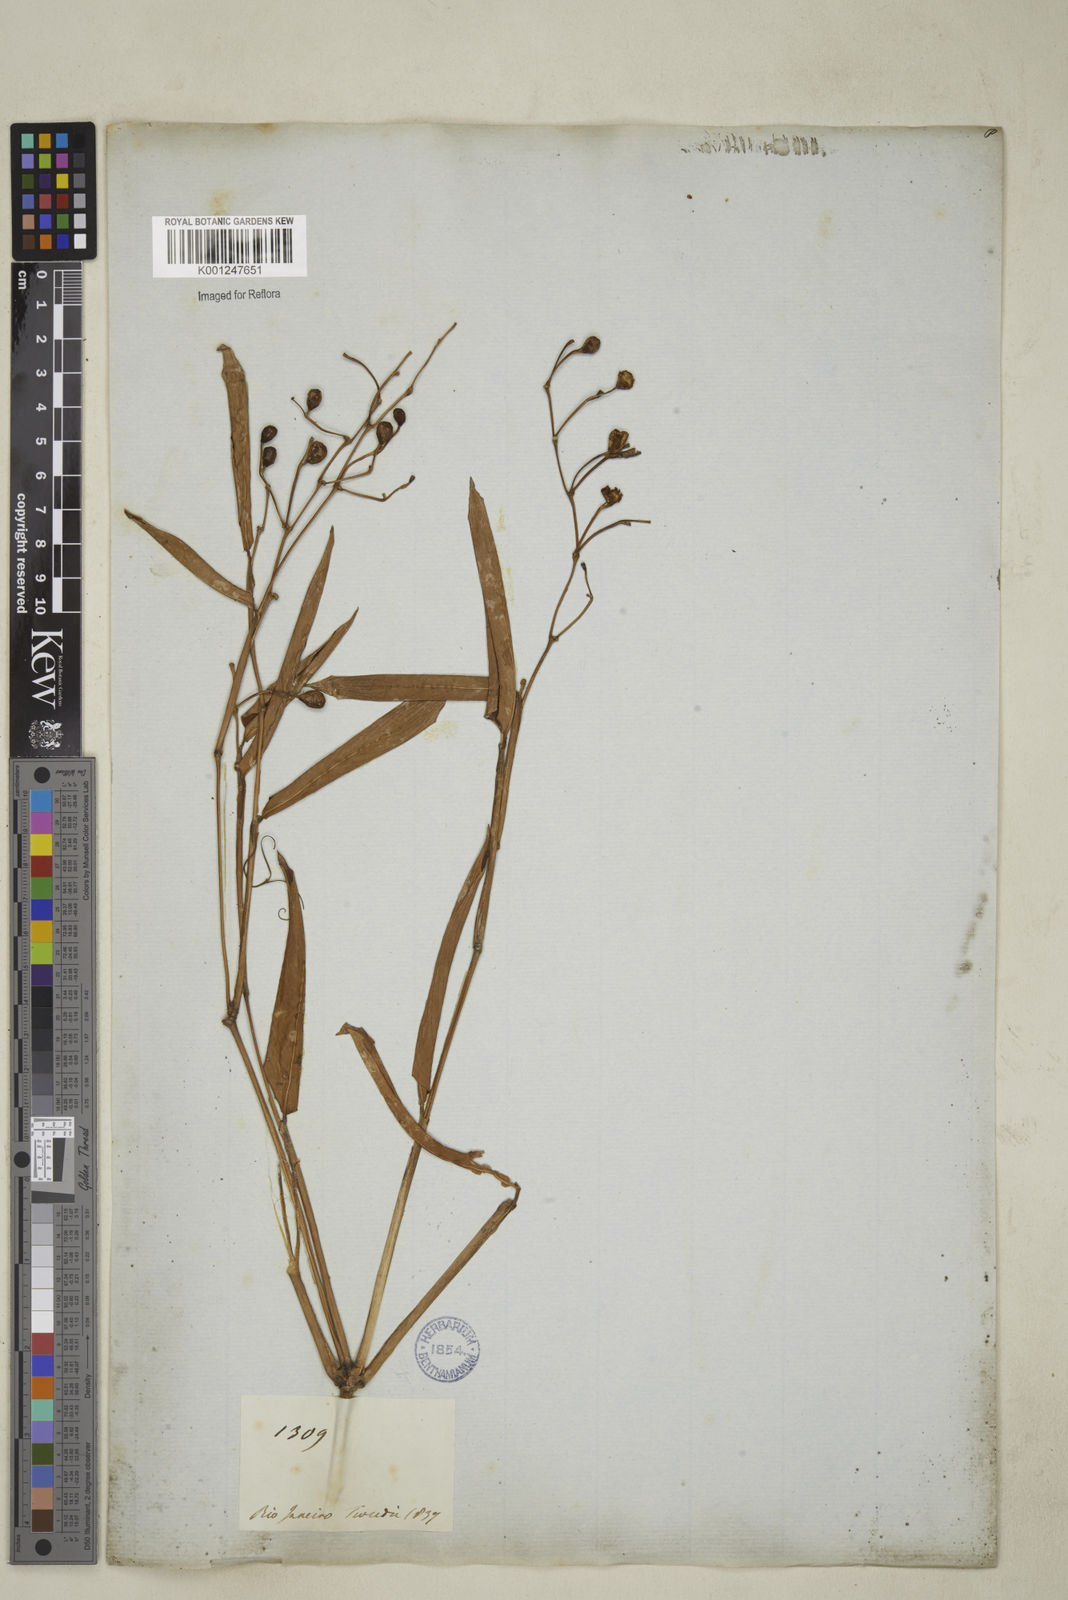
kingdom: Plantae
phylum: Tracheophyta
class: Liliopsida
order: Zingiberales
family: Marantaceae
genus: Stromanthe
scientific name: Stromanthe tonckat
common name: Stromanthe
